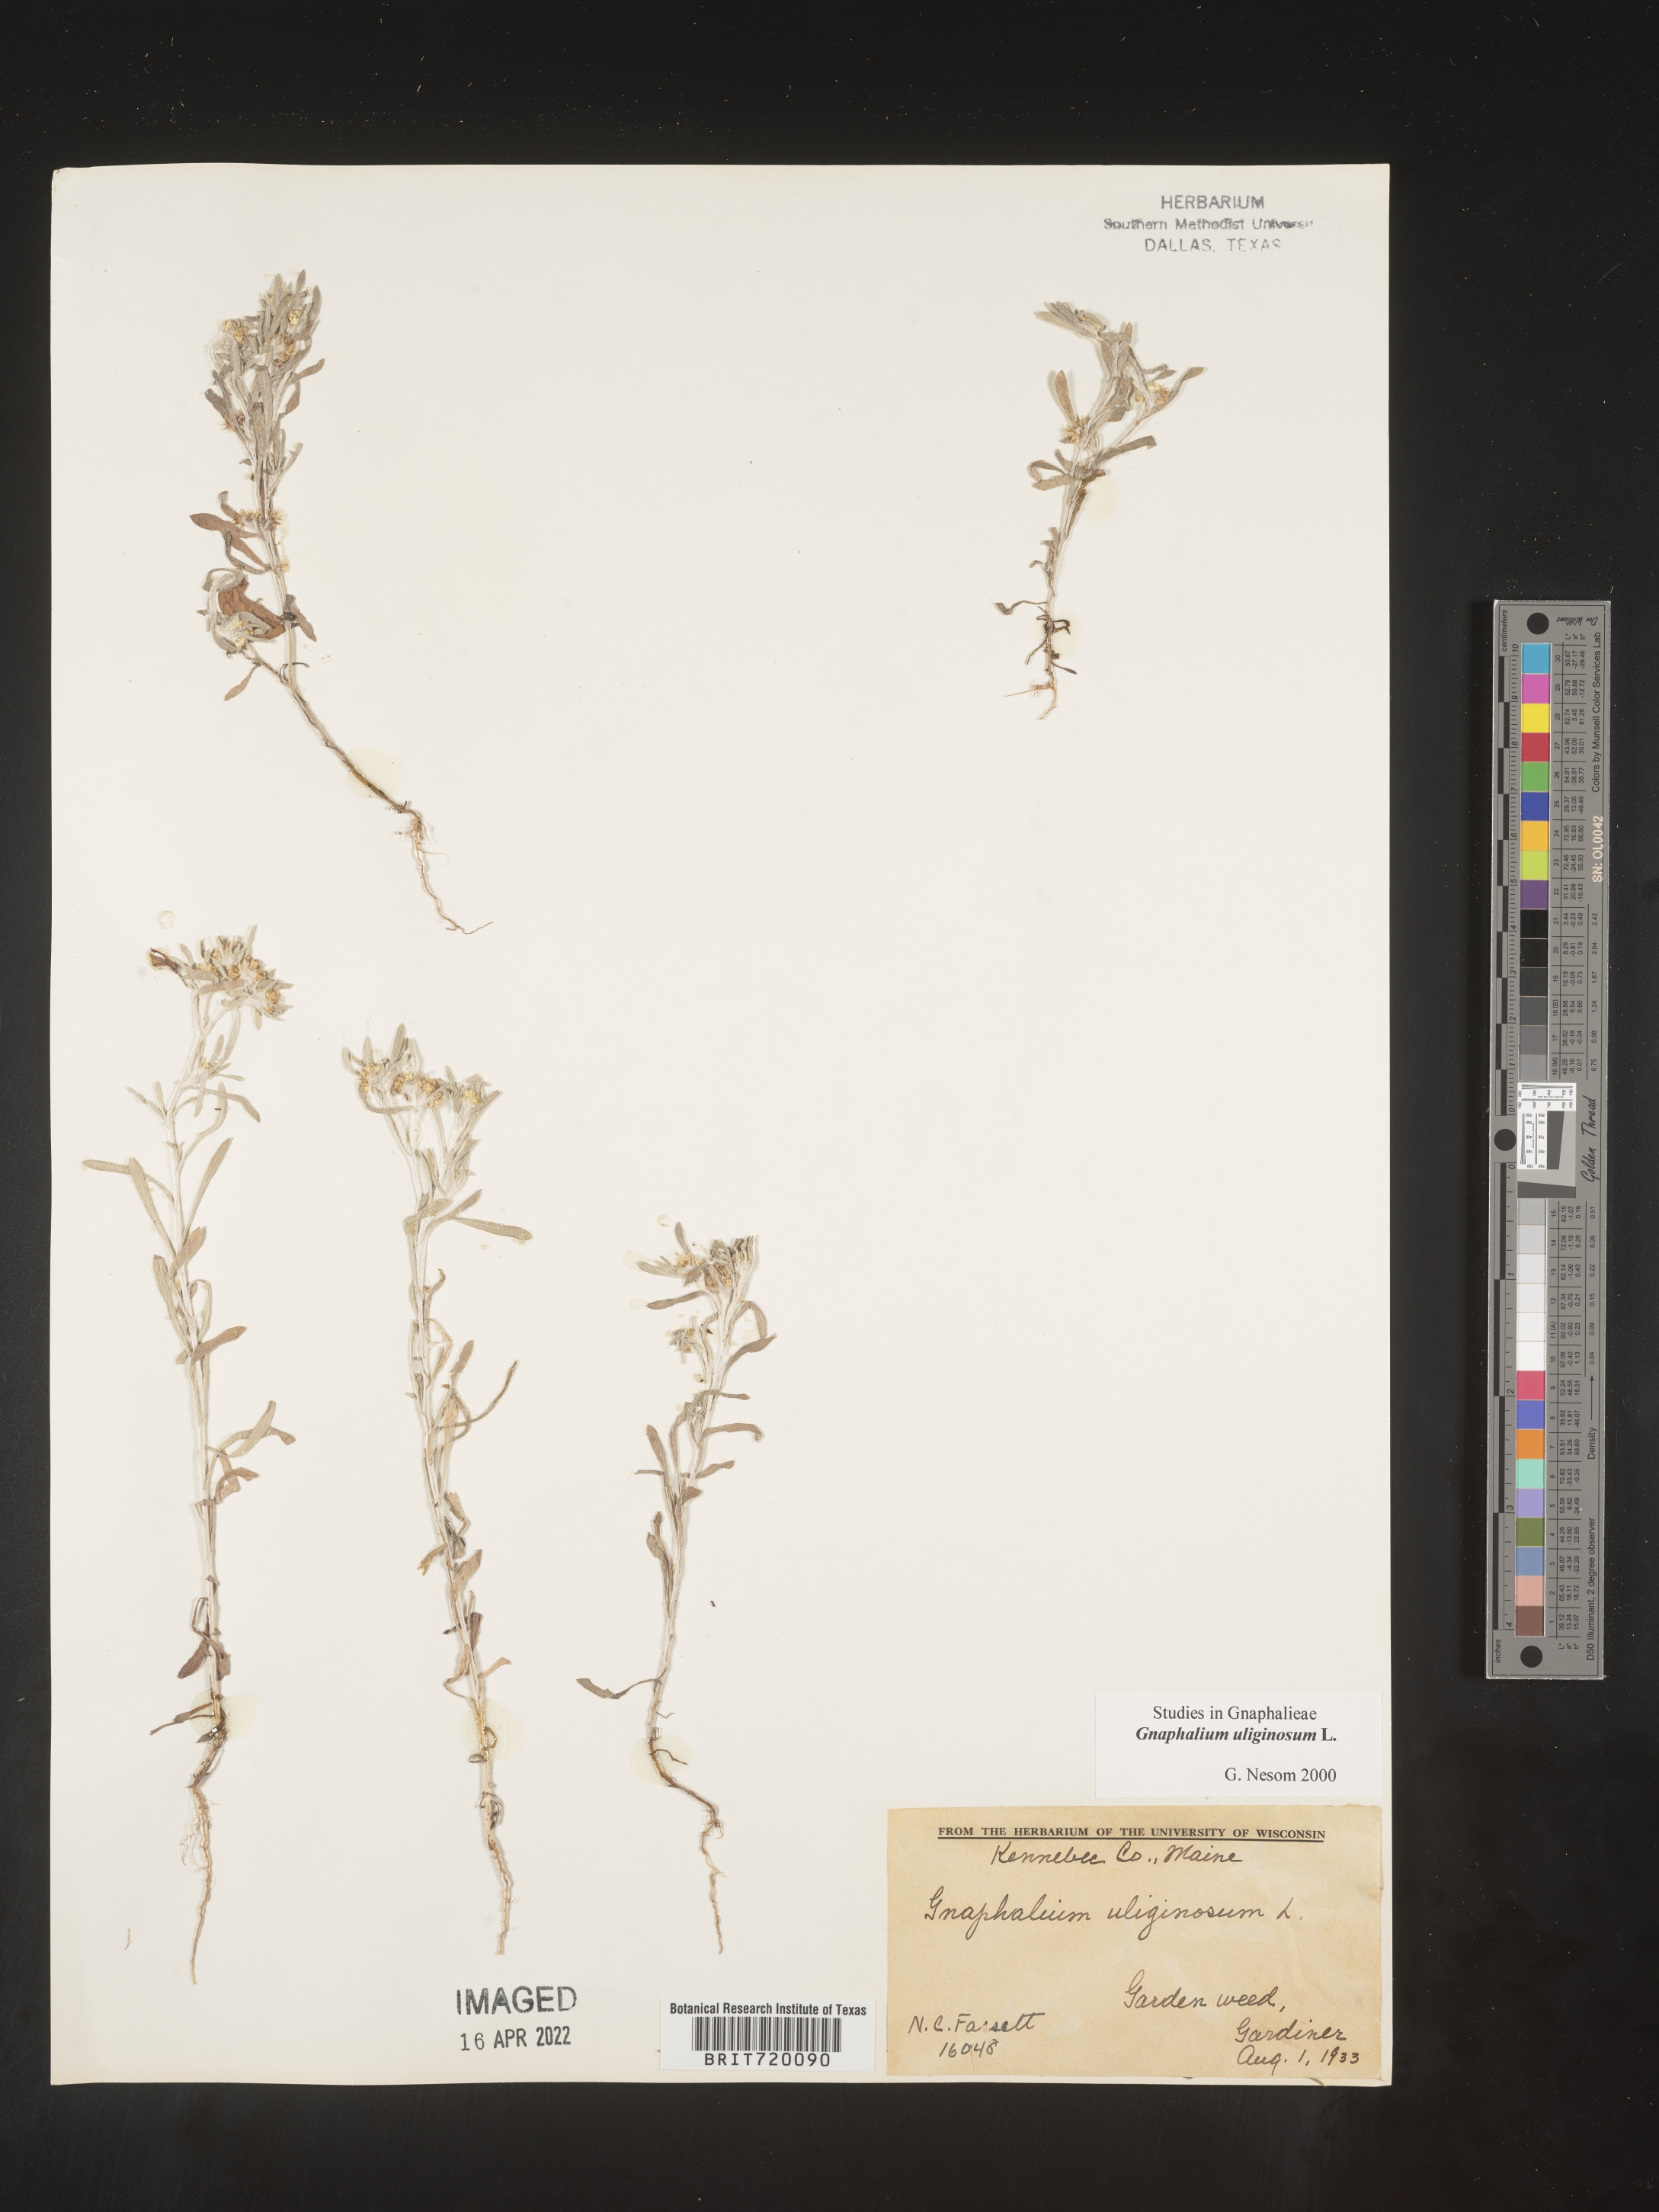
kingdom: Plantae
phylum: Tracheophyta
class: Magnoliopsida
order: Asterales
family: Asteraceae
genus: Gnaphalium
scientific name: Gnaphalium uliginosum
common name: Marsh cudweed
